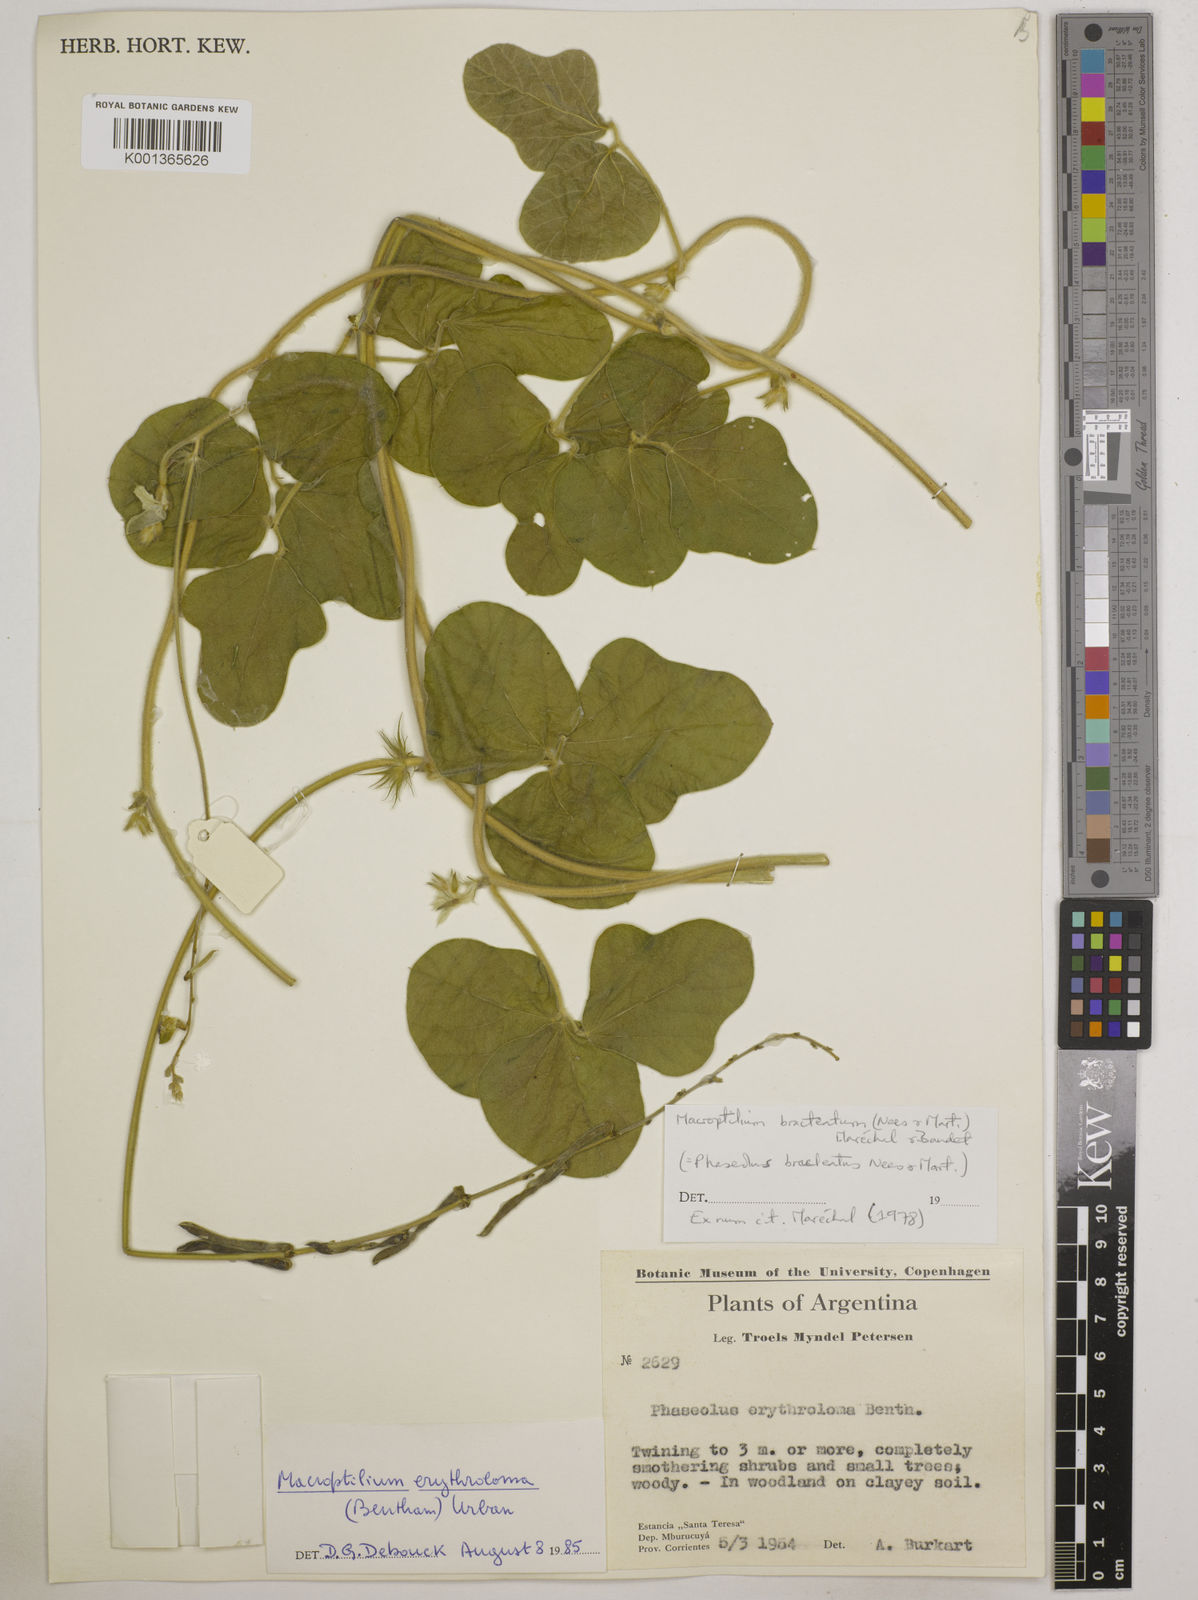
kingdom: Plantae
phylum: Tracheophyta
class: Magnoliopsida
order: Fabales
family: Fabaceae
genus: Macroptilium
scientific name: Macroptilium erythroloma
